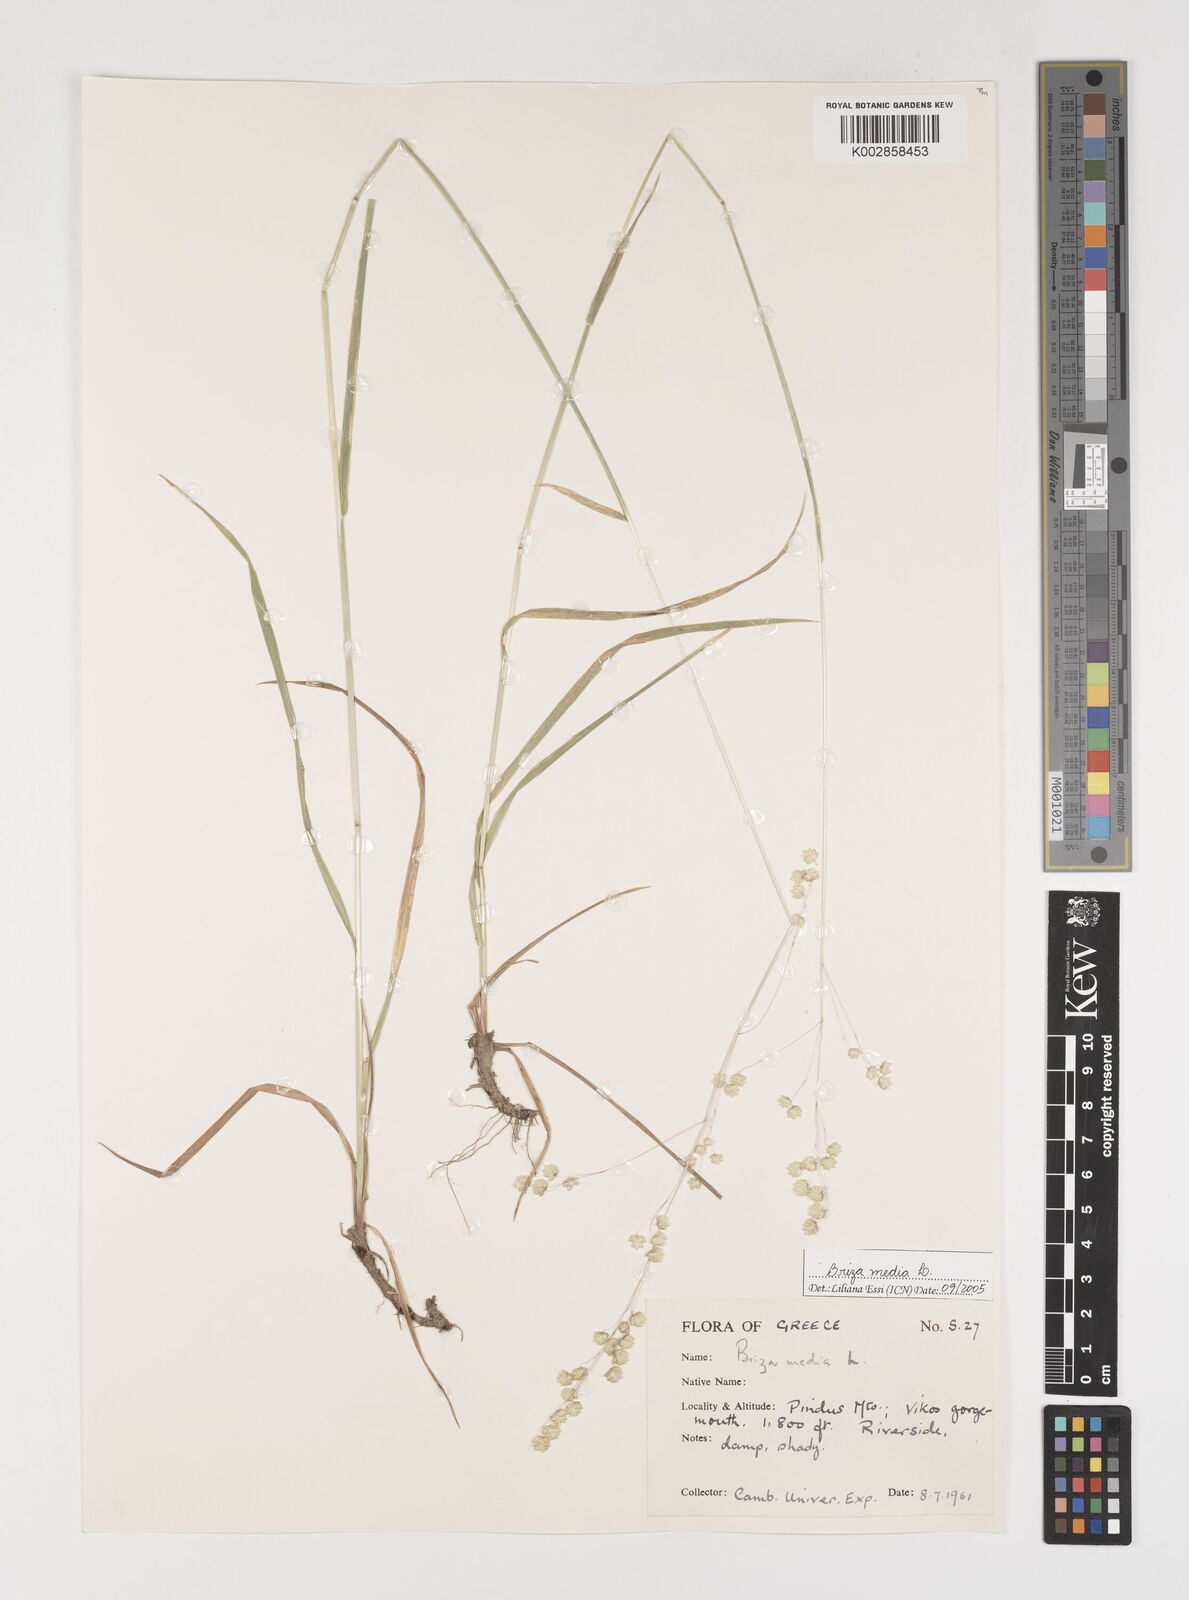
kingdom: Plantae
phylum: Tracheophyta
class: Liliopsida
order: Poales
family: Poaceae
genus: Briza
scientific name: Briza media
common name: Quaking grass
